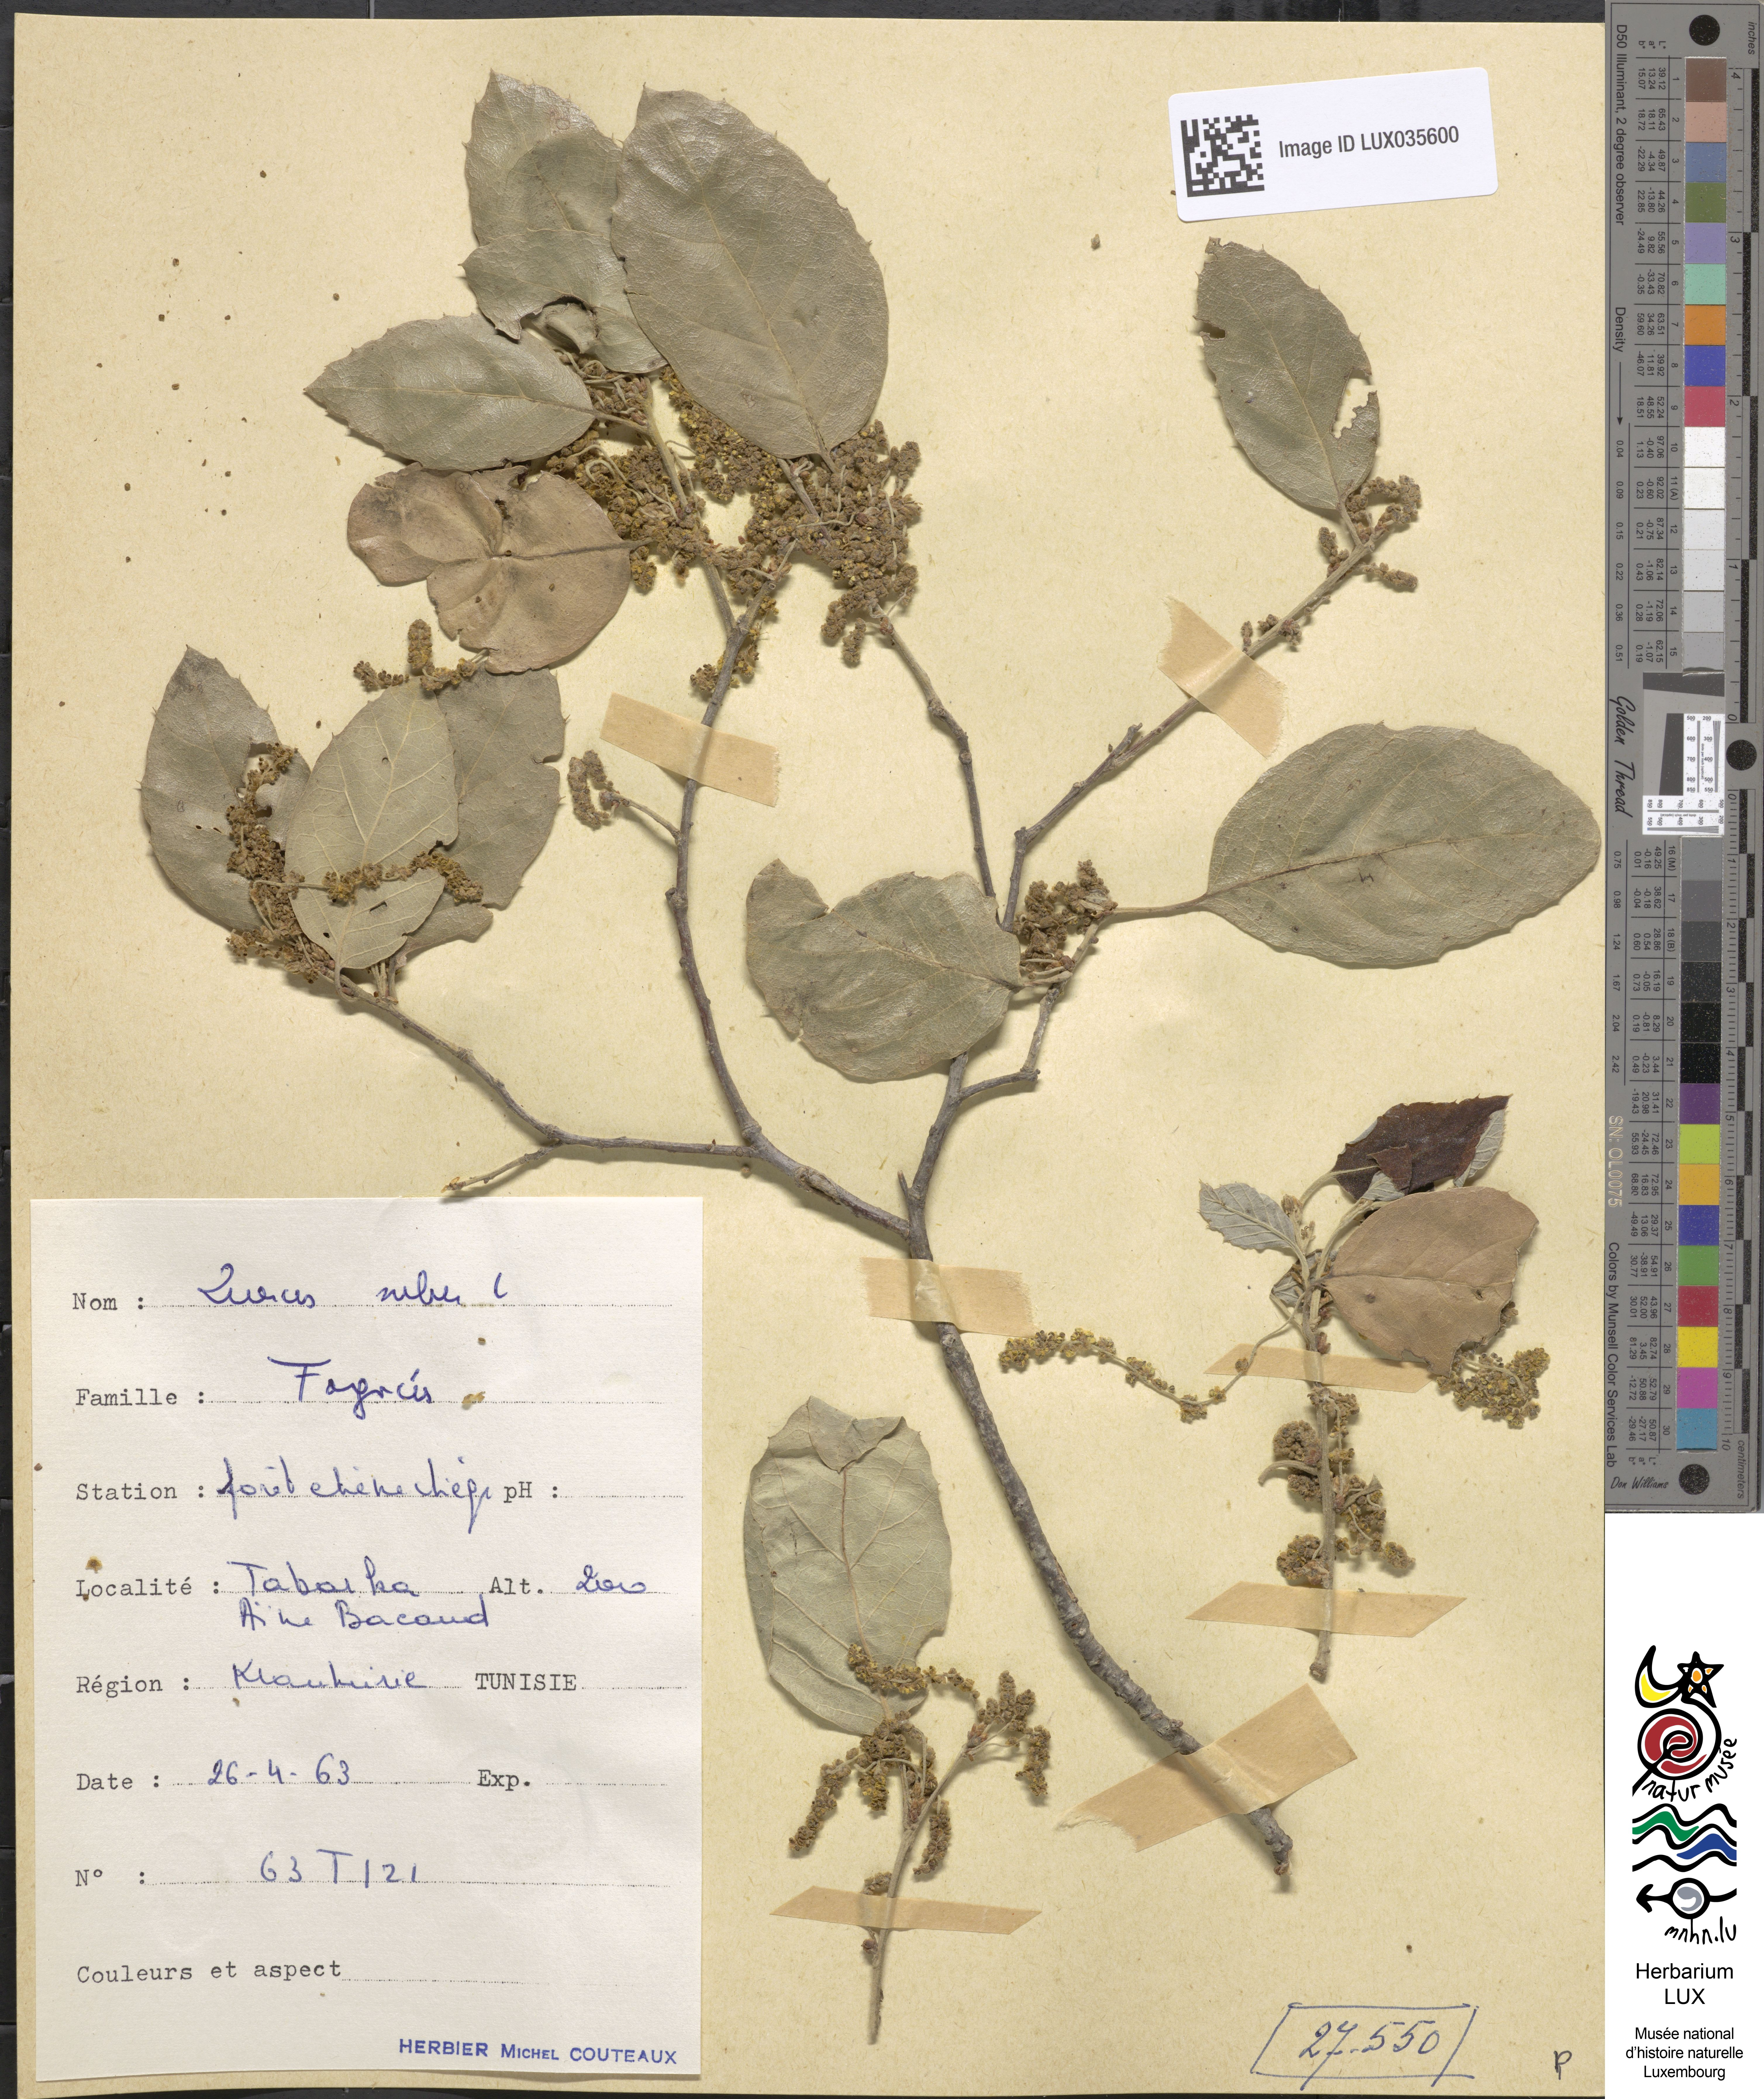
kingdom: Plantae
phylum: Tracheophyta
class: Magnoliopsida
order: Fagales
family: Fagaceae
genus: Quercus
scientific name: Quercus suber
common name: Cork oak
